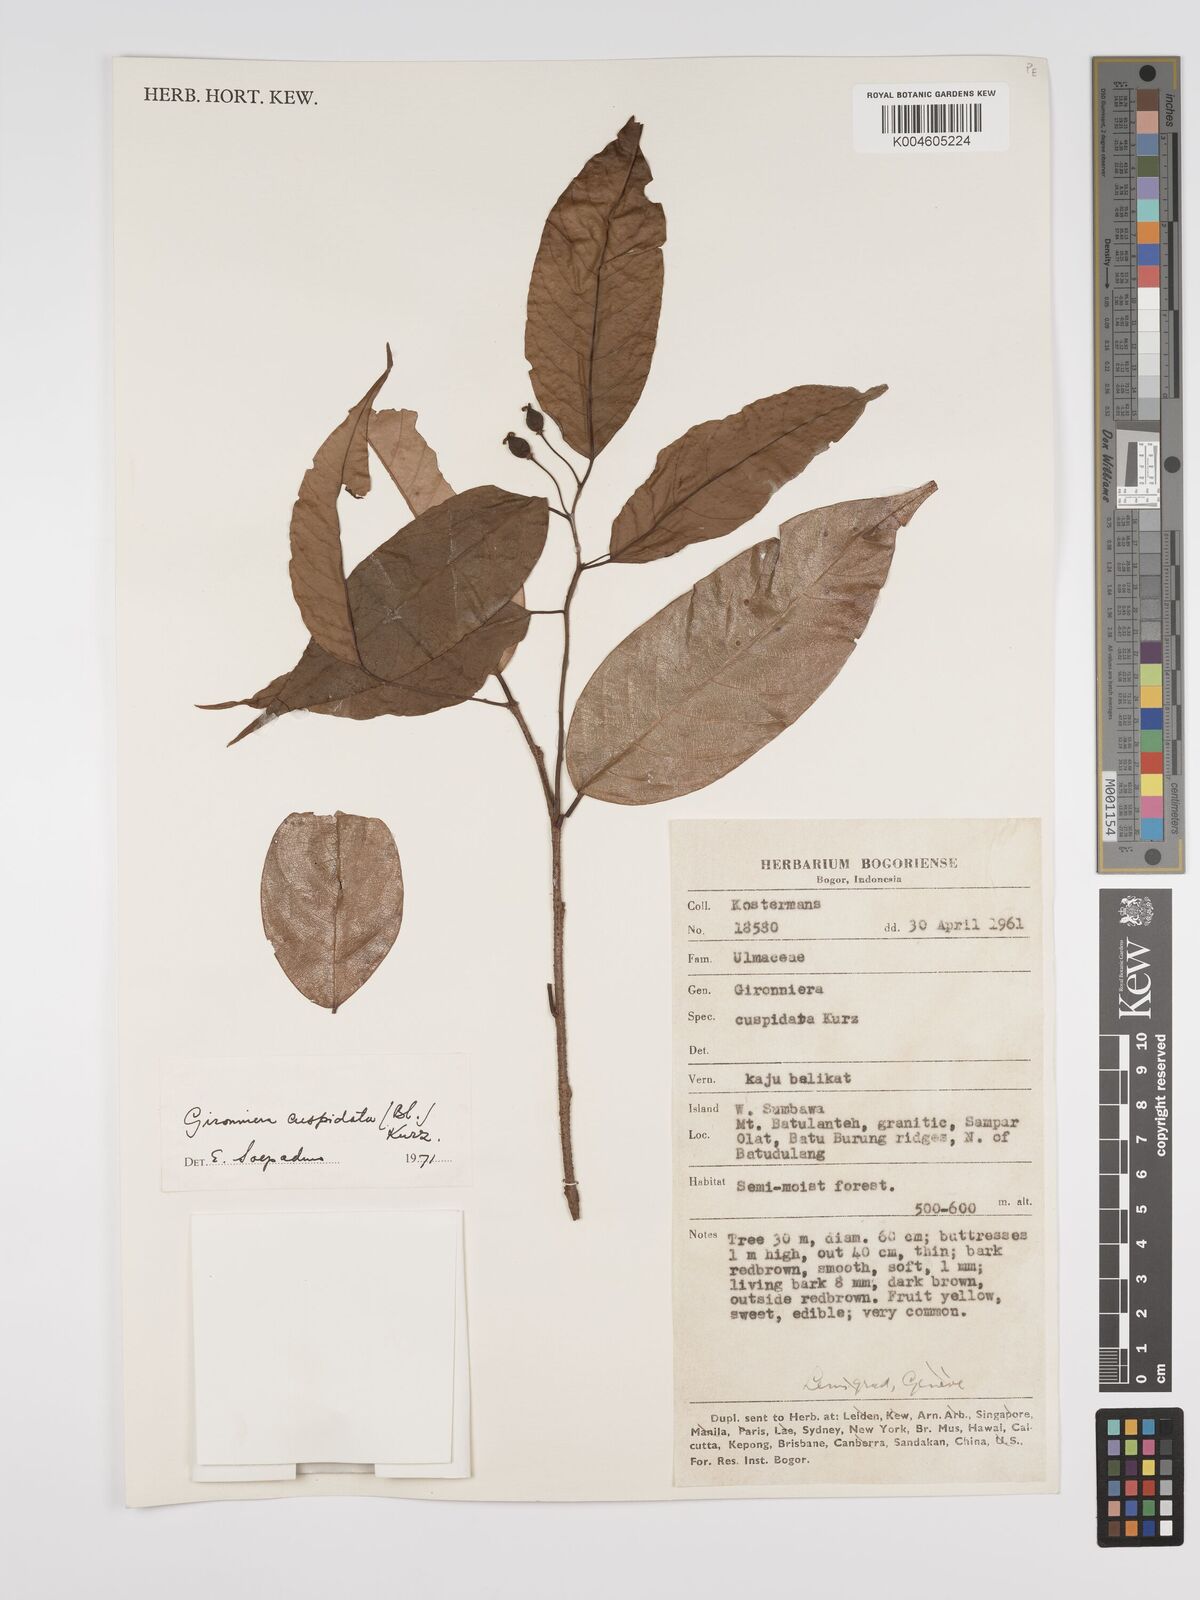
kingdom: Plantae
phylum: Tracheophyta
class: Magnoliopsida
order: Rosales
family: Cannabaceae
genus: Aphananthe
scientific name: Aphananthe cuspidata
